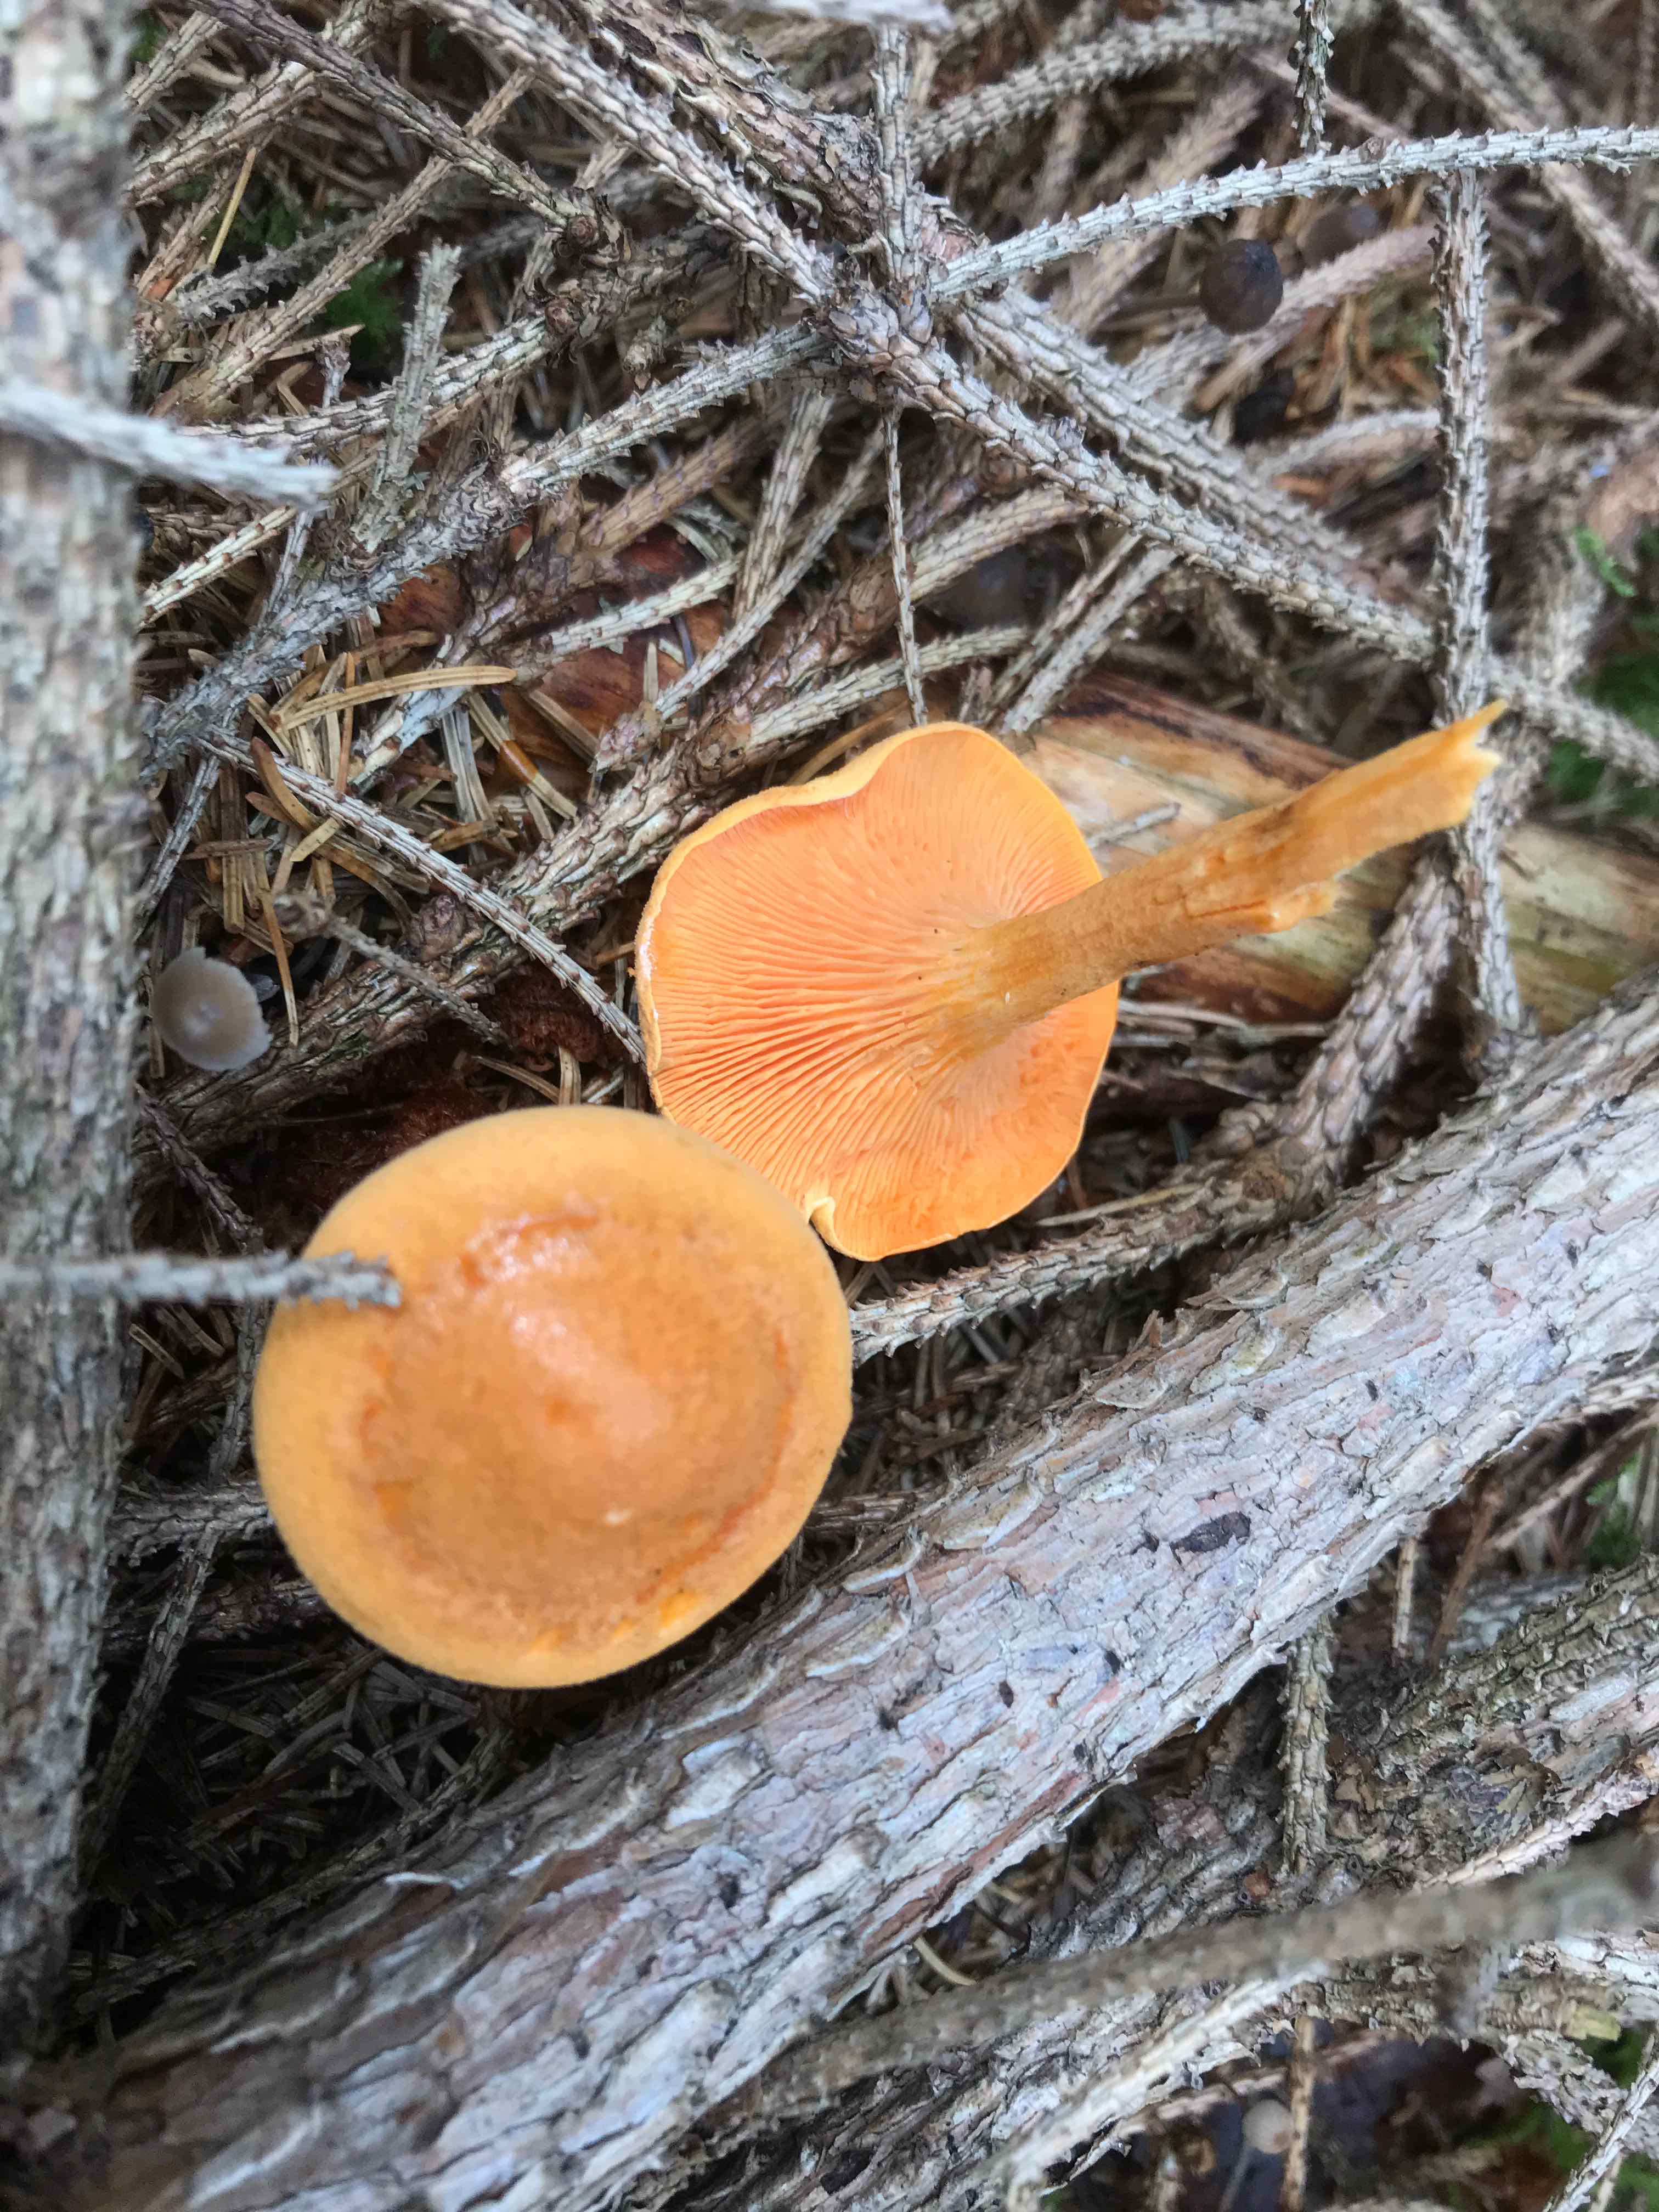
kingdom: Fungi
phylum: Basidiomycota
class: Agaricomycetes
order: Boletales
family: Hygrophoropsidaceae
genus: Hygrophoropsis
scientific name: Hygrophoropsis aurantiaca
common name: almindelig orangekantarel
